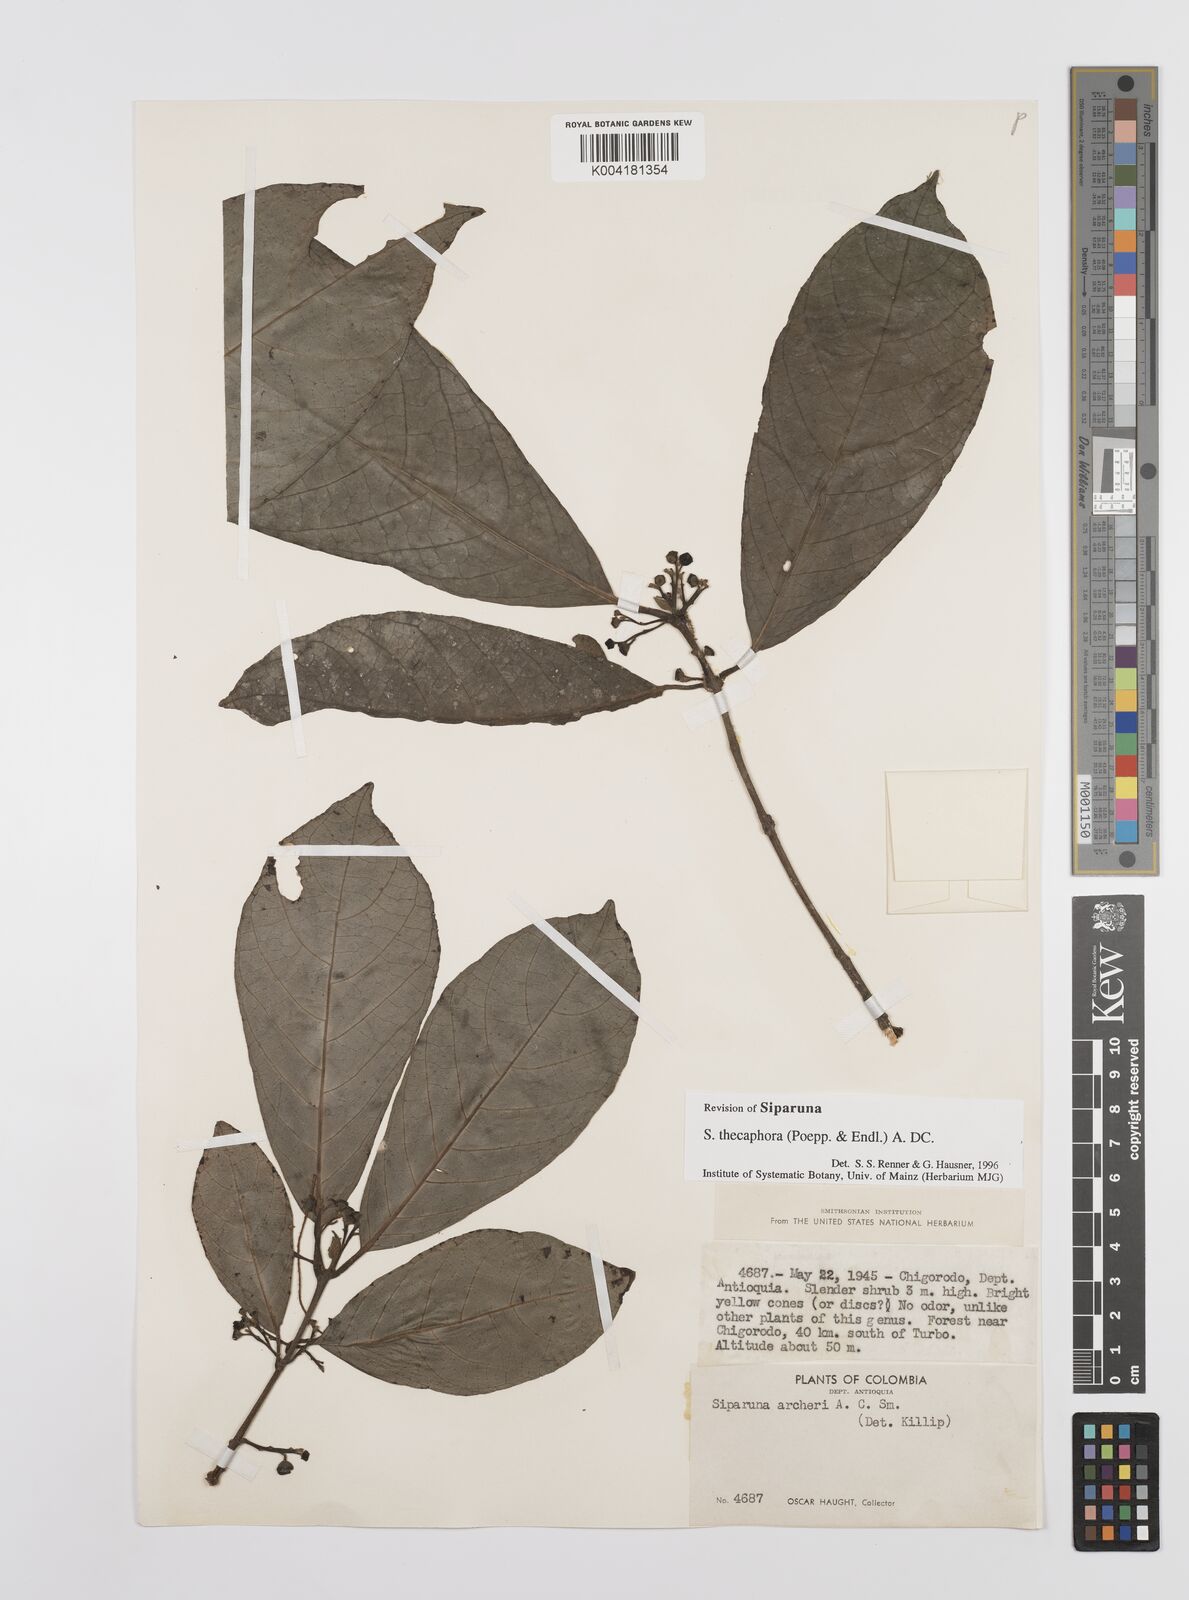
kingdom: Plantae
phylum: Tracheophyta
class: Magnoliopsida
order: Laurales
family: Siparunaceae
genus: Siparuna
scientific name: Siparuna thecaphora
